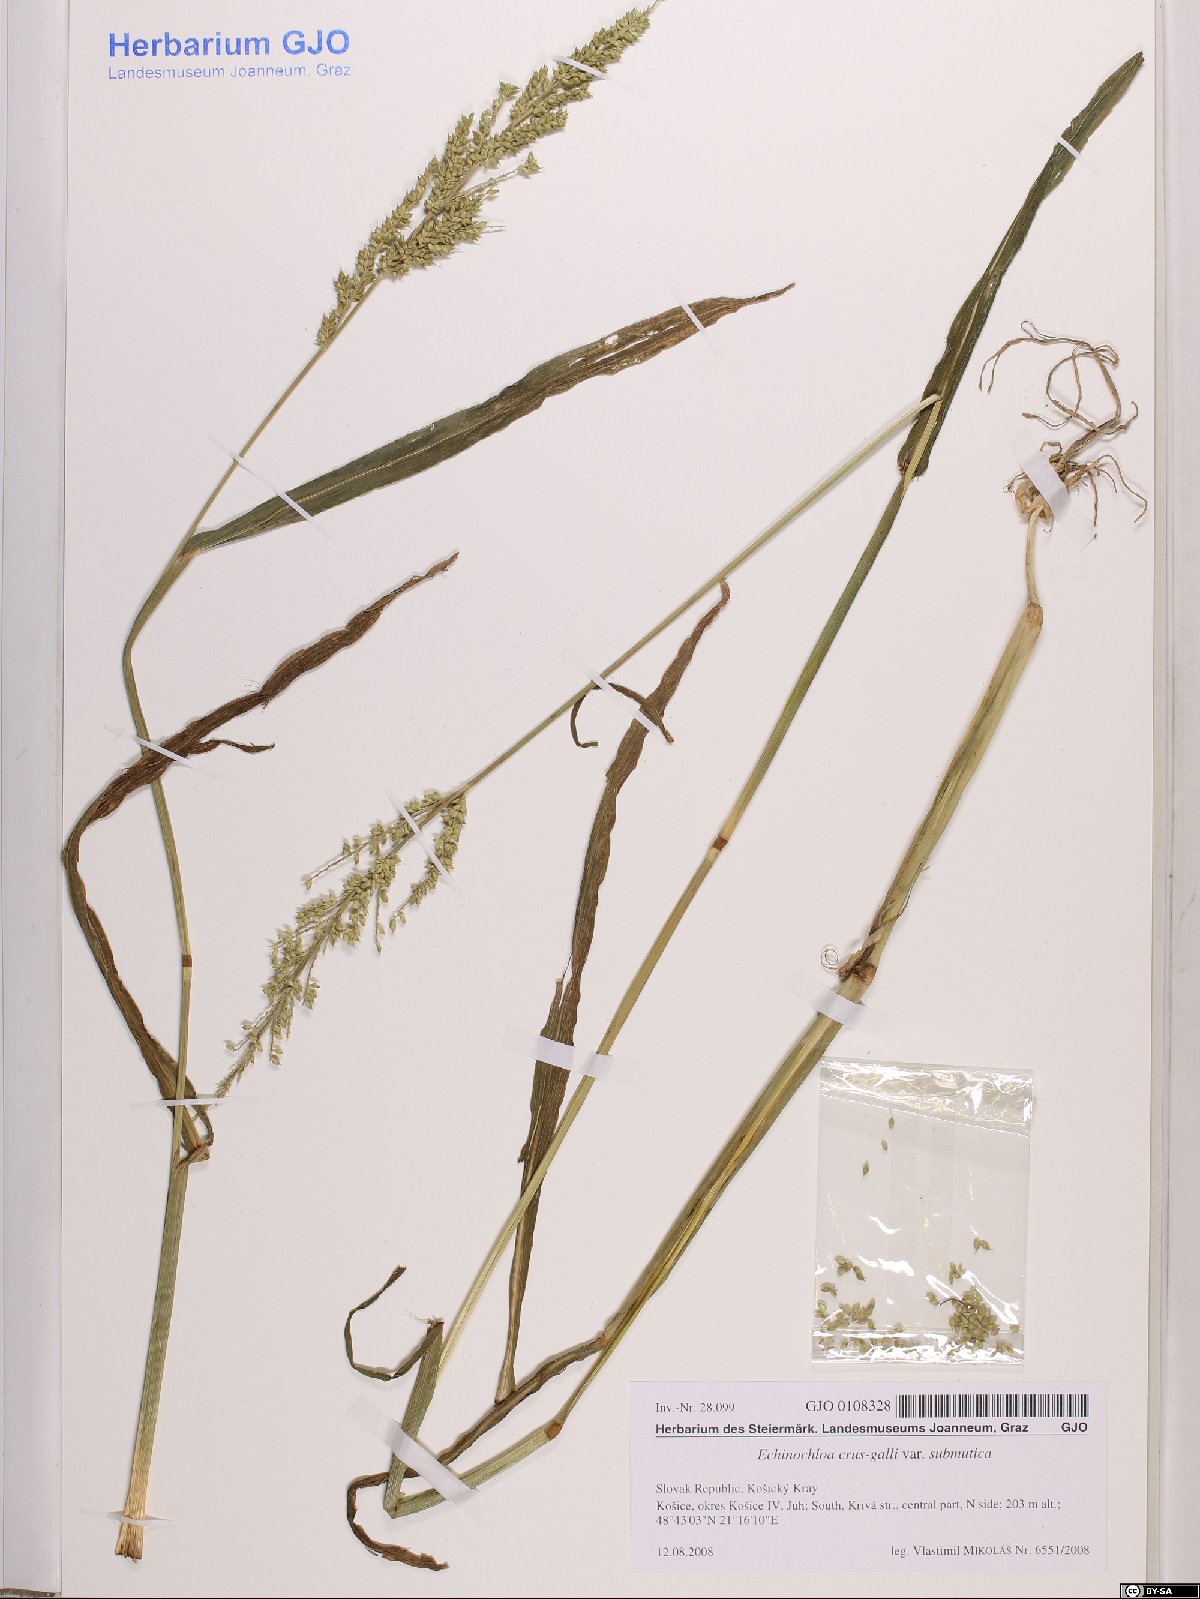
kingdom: Plantae
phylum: Tracheophyta
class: Liliopsida
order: Poales
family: Poaceae
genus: Echinochloa
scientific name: Echinochloa crus-galli
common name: Cockspur
